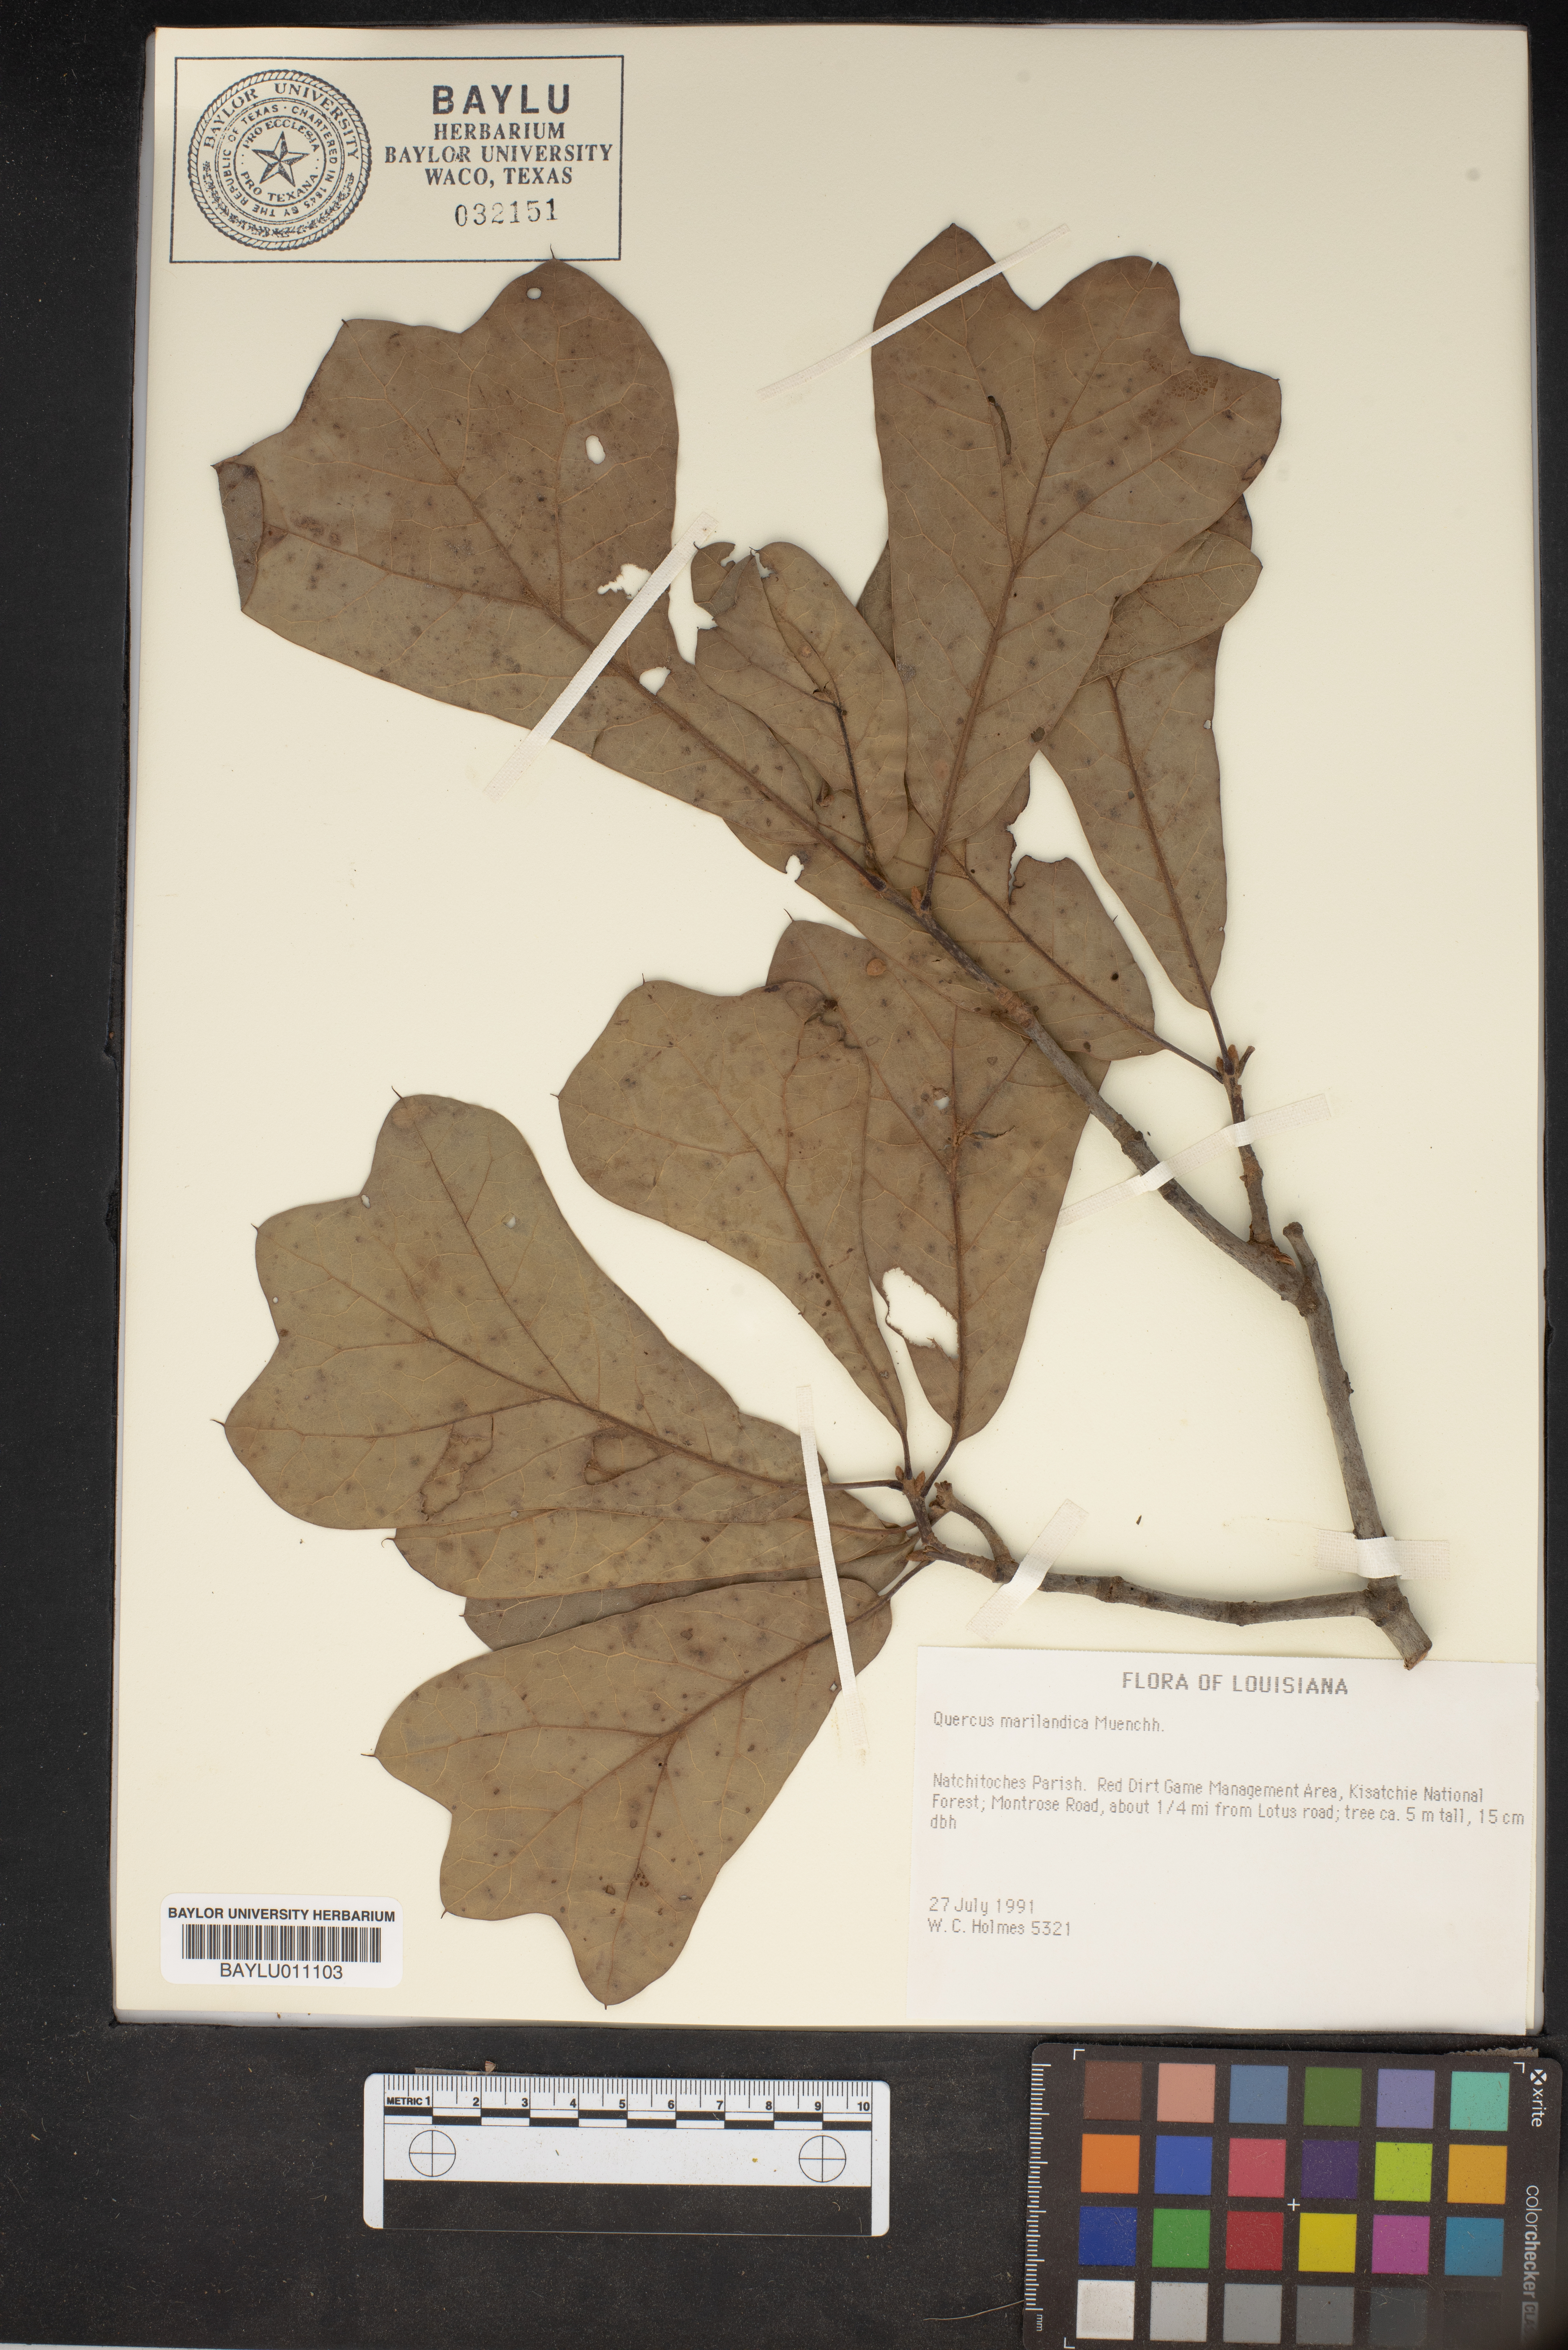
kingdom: Plantae
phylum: Tracheophyta
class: Magnoliopsida
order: Fagales
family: Fagaceae
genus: Quercus
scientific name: Quercus marilandica
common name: Blackjack oak
